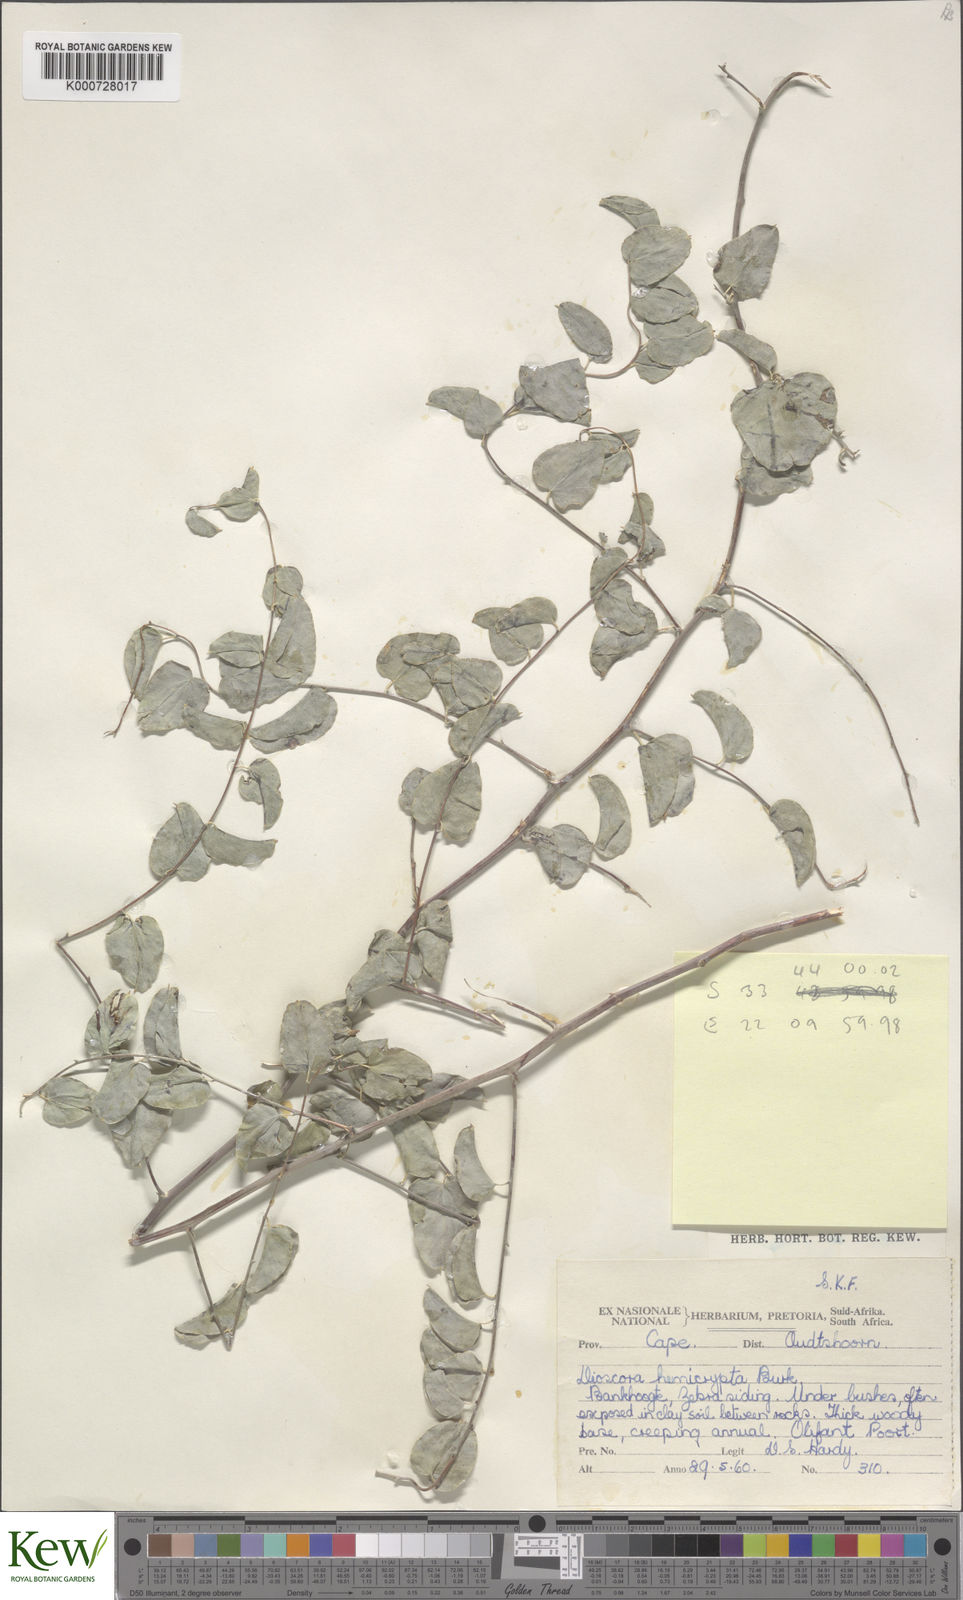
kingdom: Plantae
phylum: Tracheophyta
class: Liliopsida
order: Dioscoreales
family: Dioscoreaceae
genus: Dioscorea
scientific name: Dioscorea hemicrypta
